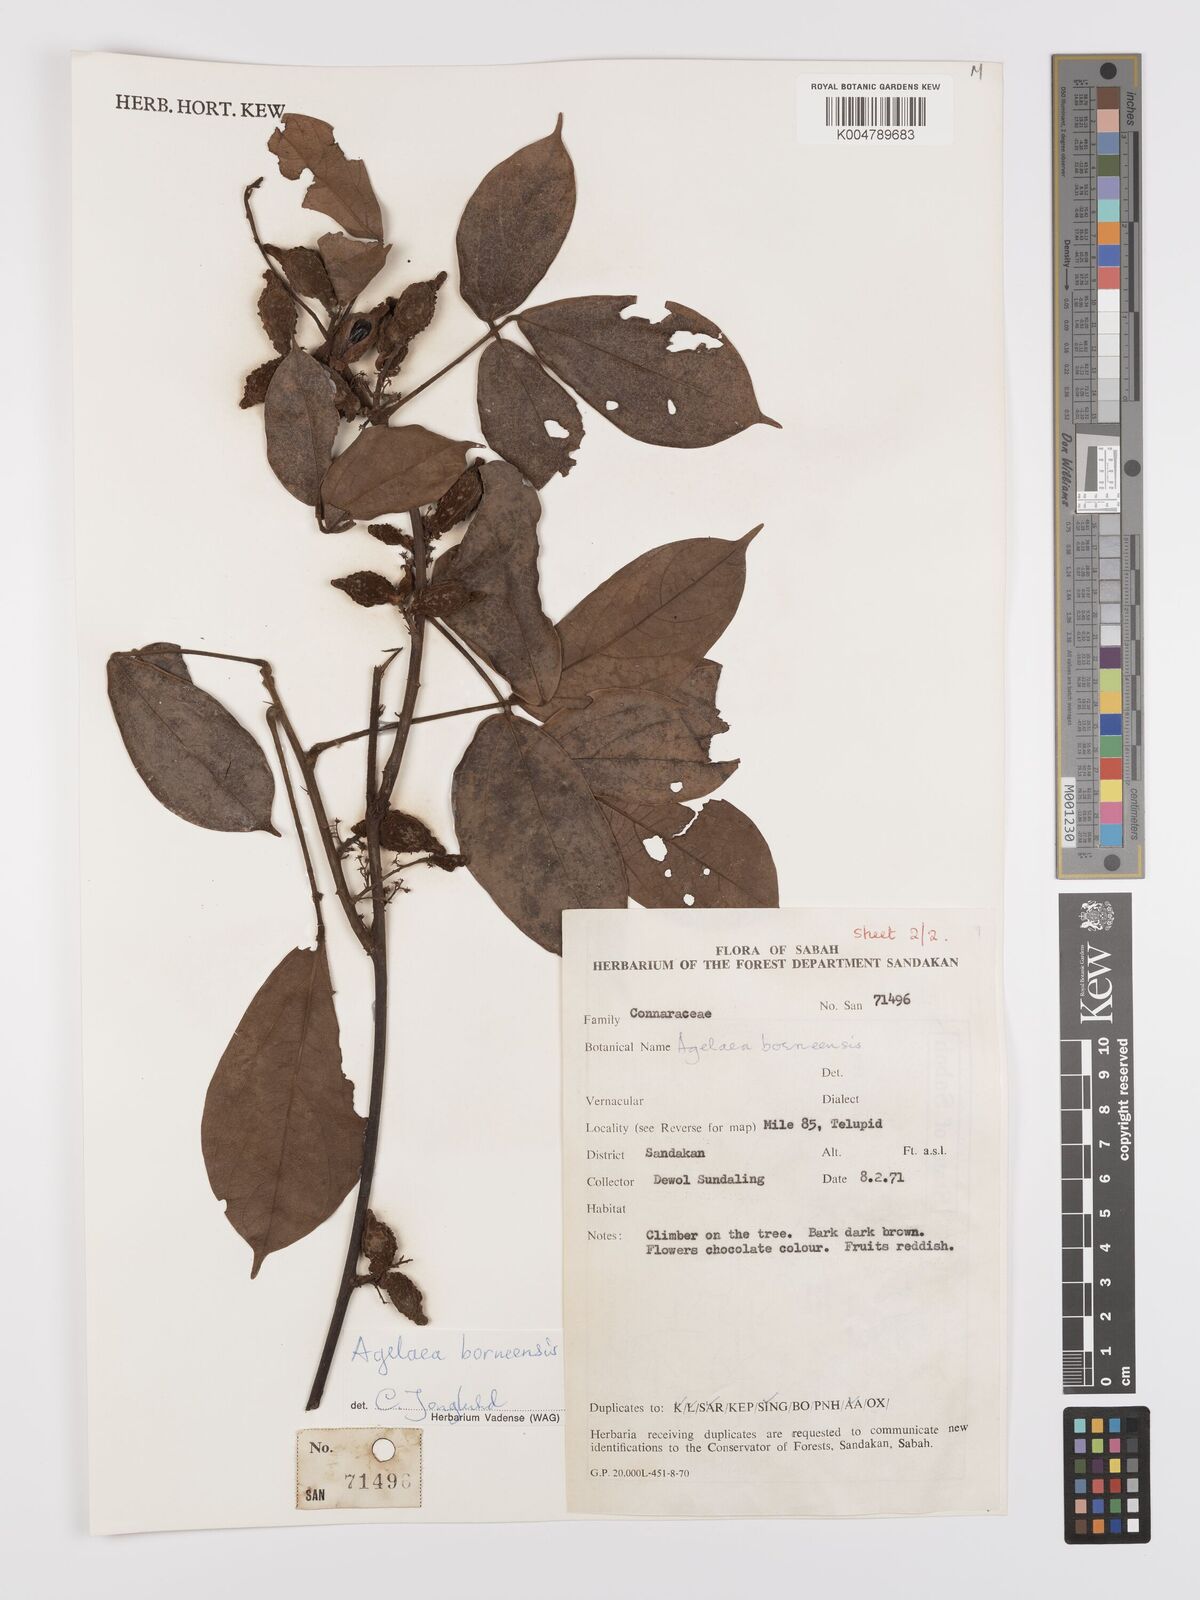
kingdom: Plantae
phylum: Tracheophyta
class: Magnoliopsida
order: Oxalidales
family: Connaraceae
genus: Agelaea
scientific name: Agelaea borneensis
